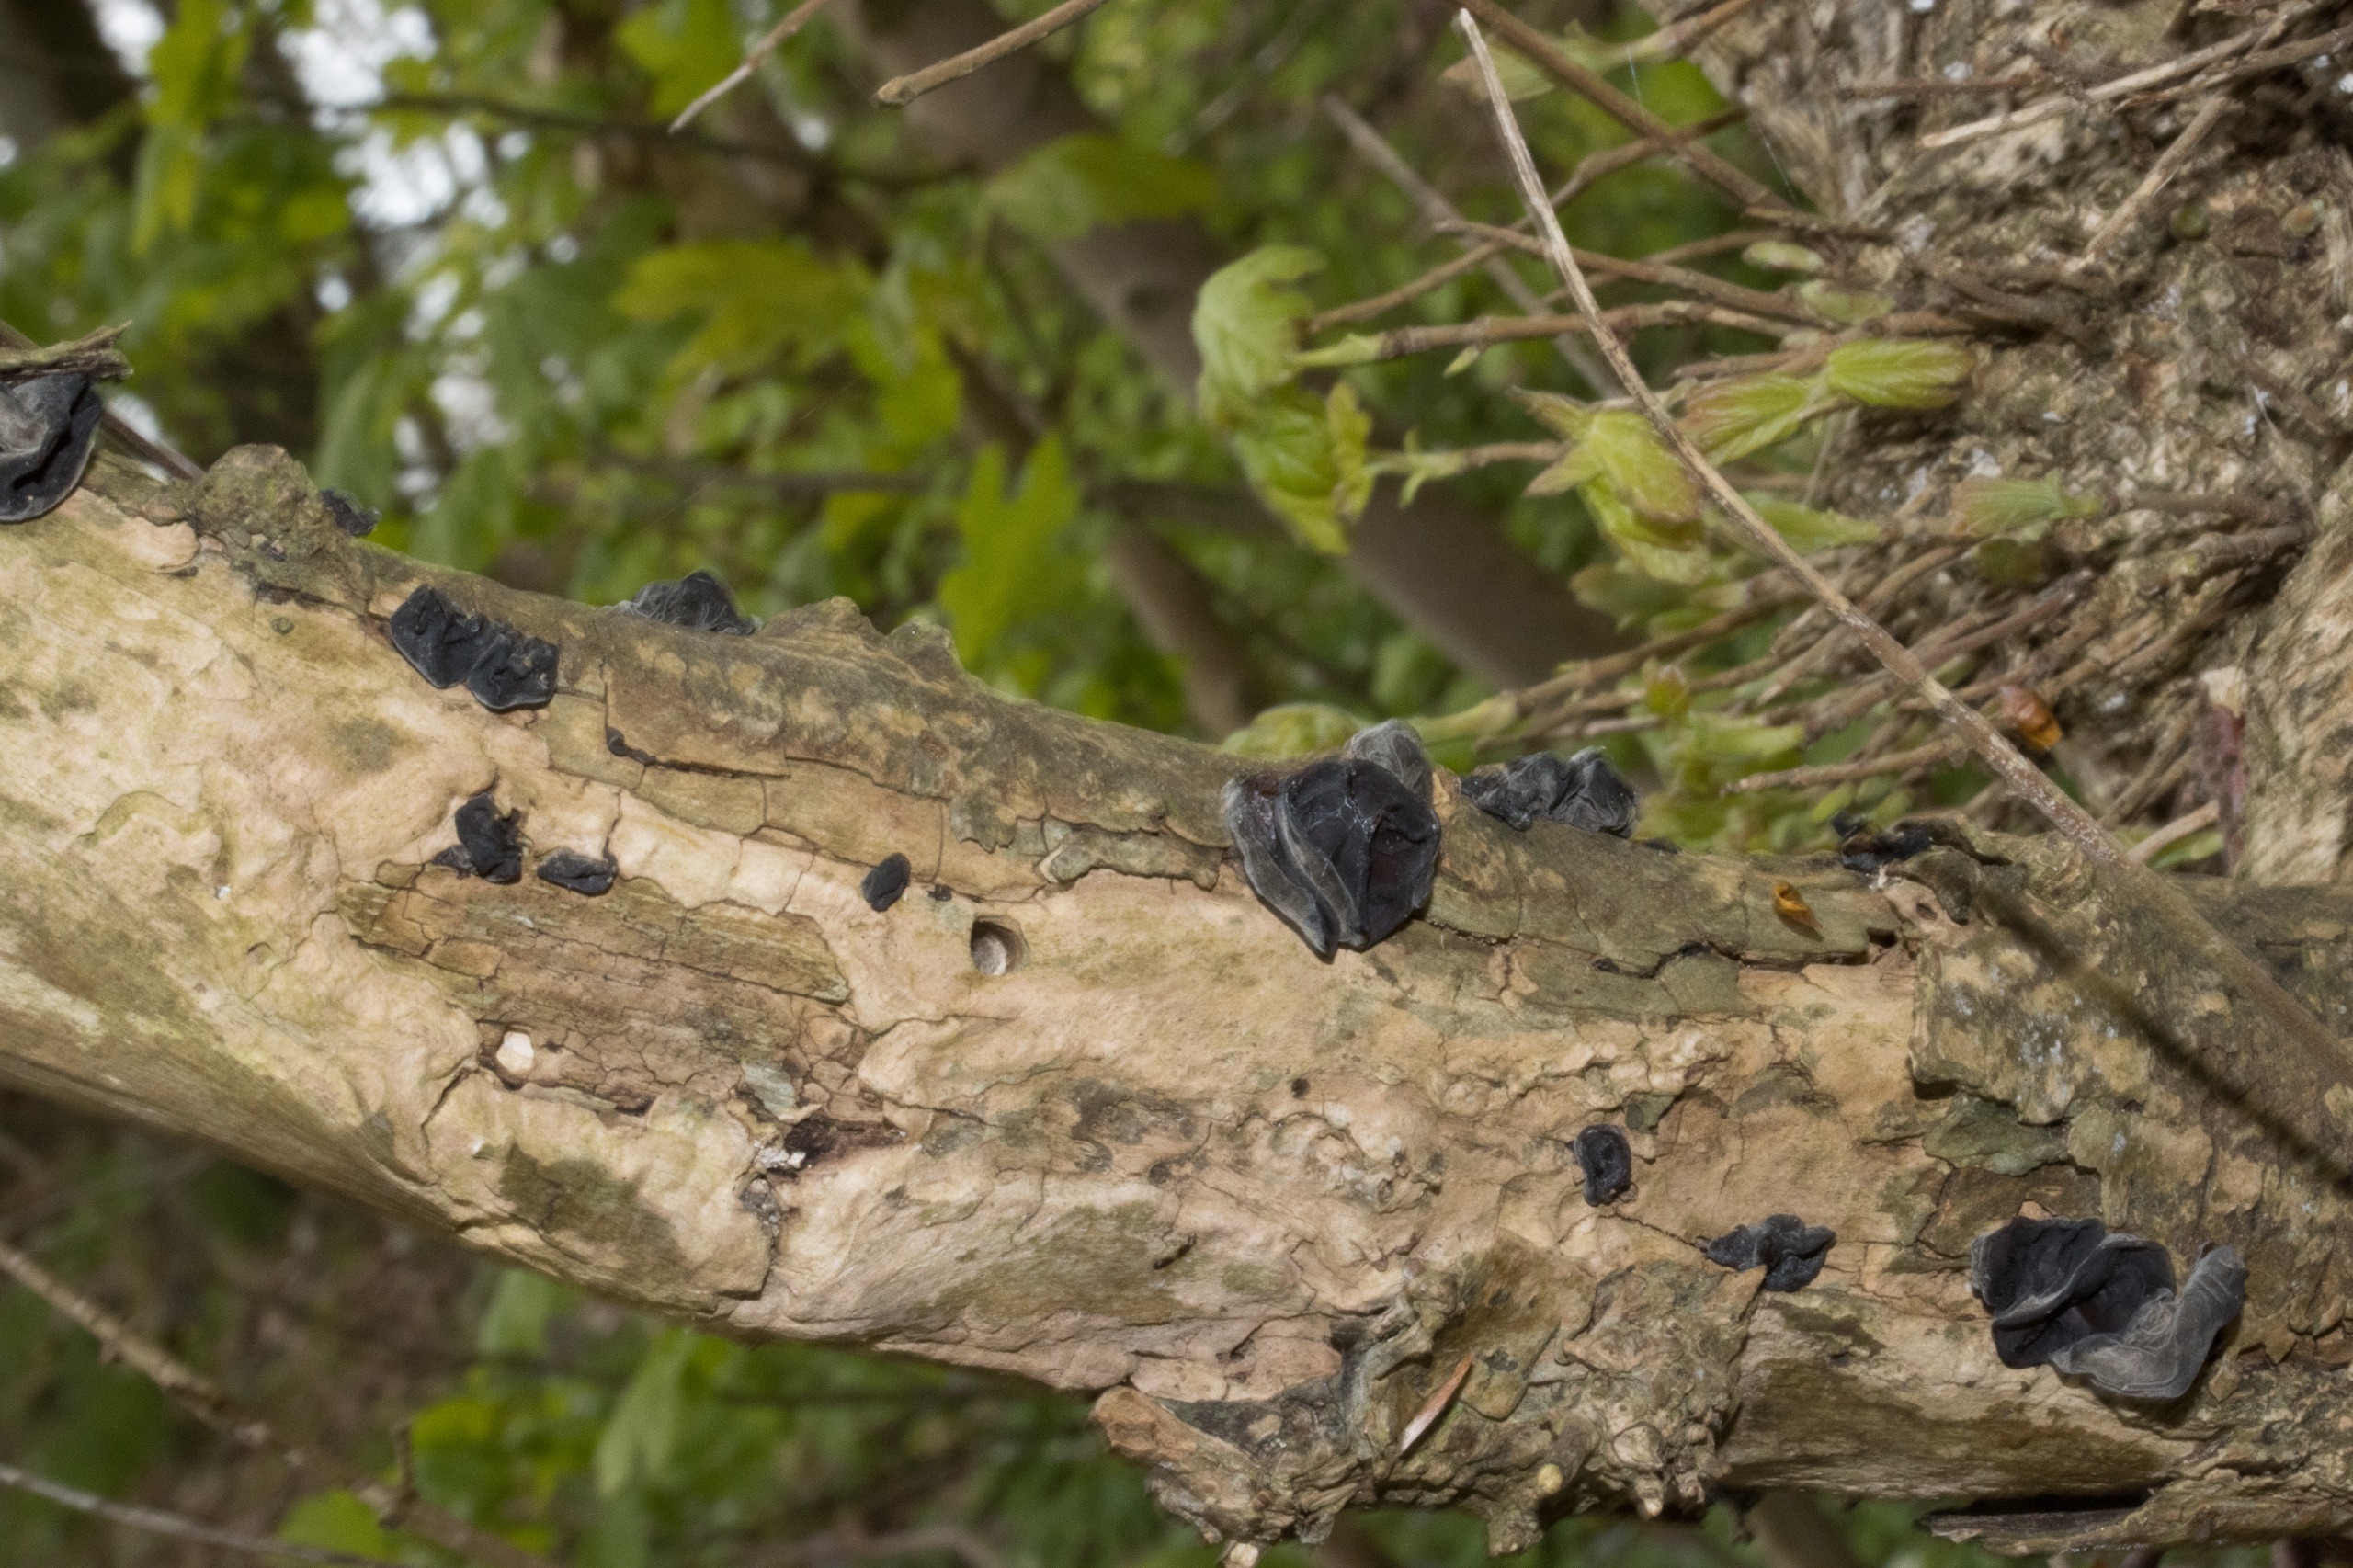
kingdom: Fungi
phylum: Basidiomycota
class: Agaricomycetes
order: Auriculariales
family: Auriculariaceae
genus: Auricularia
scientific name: Auricularia auricula-judae
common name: Almindelig judasøre
